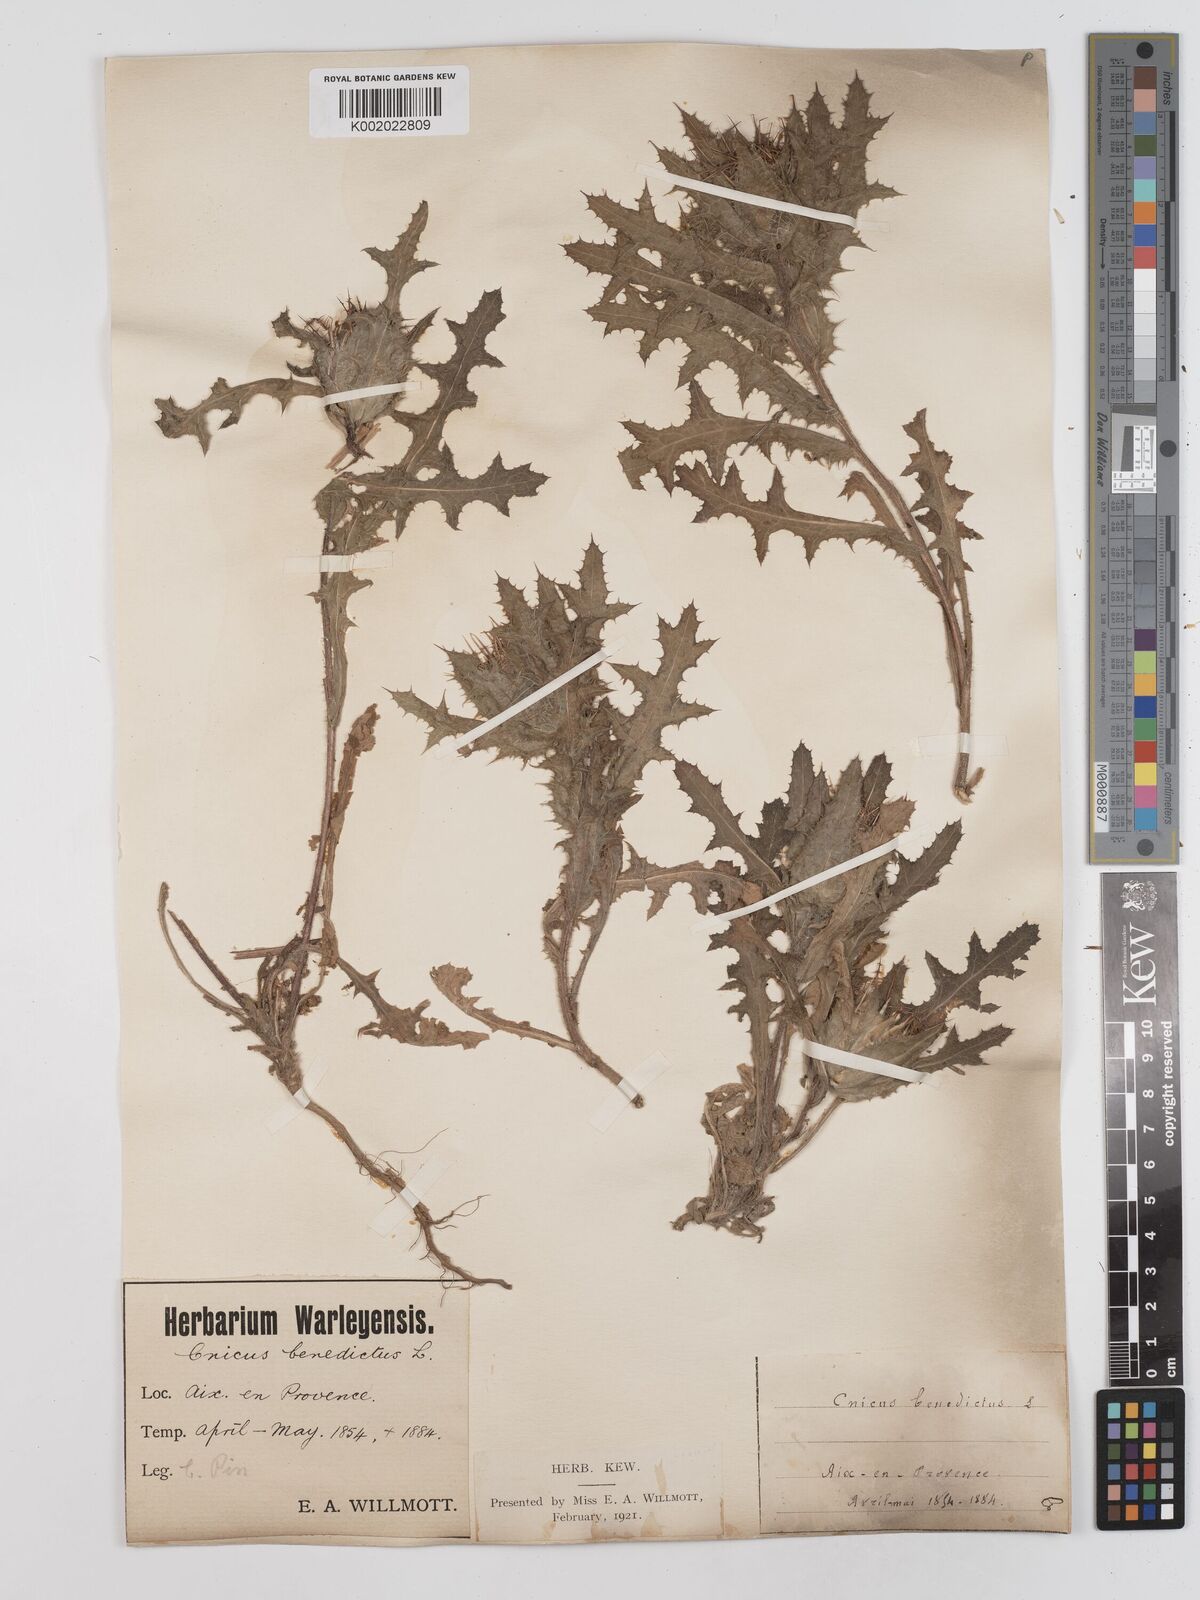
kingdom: Plantae
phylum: Tracheophyta
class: Magnoliopsida
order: Asterales
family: Asteraceae
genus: Centaurea
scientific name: Centaurea benedicta
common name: Blessed thistle
